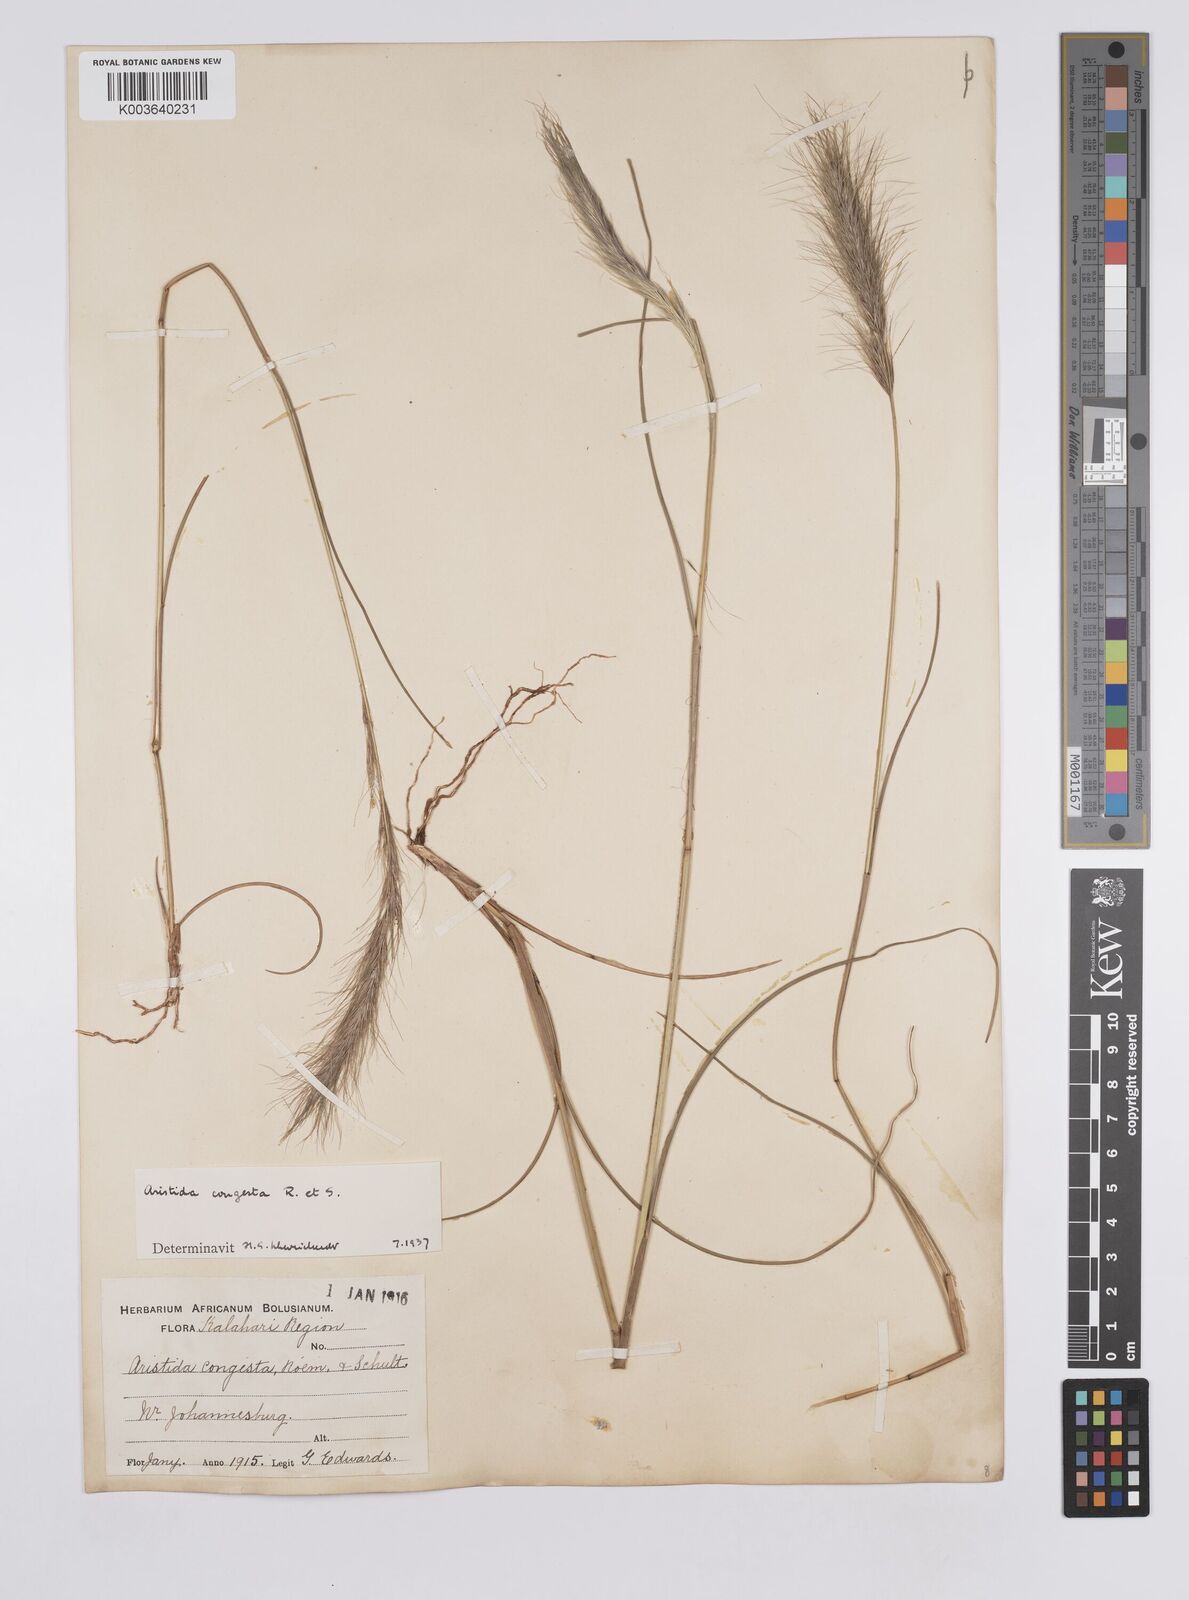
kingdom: Plantae
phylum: Tracheophyta
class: Liliopsida
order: Poales
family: Poaceae
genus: Aristida
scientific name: Aristida congesta
